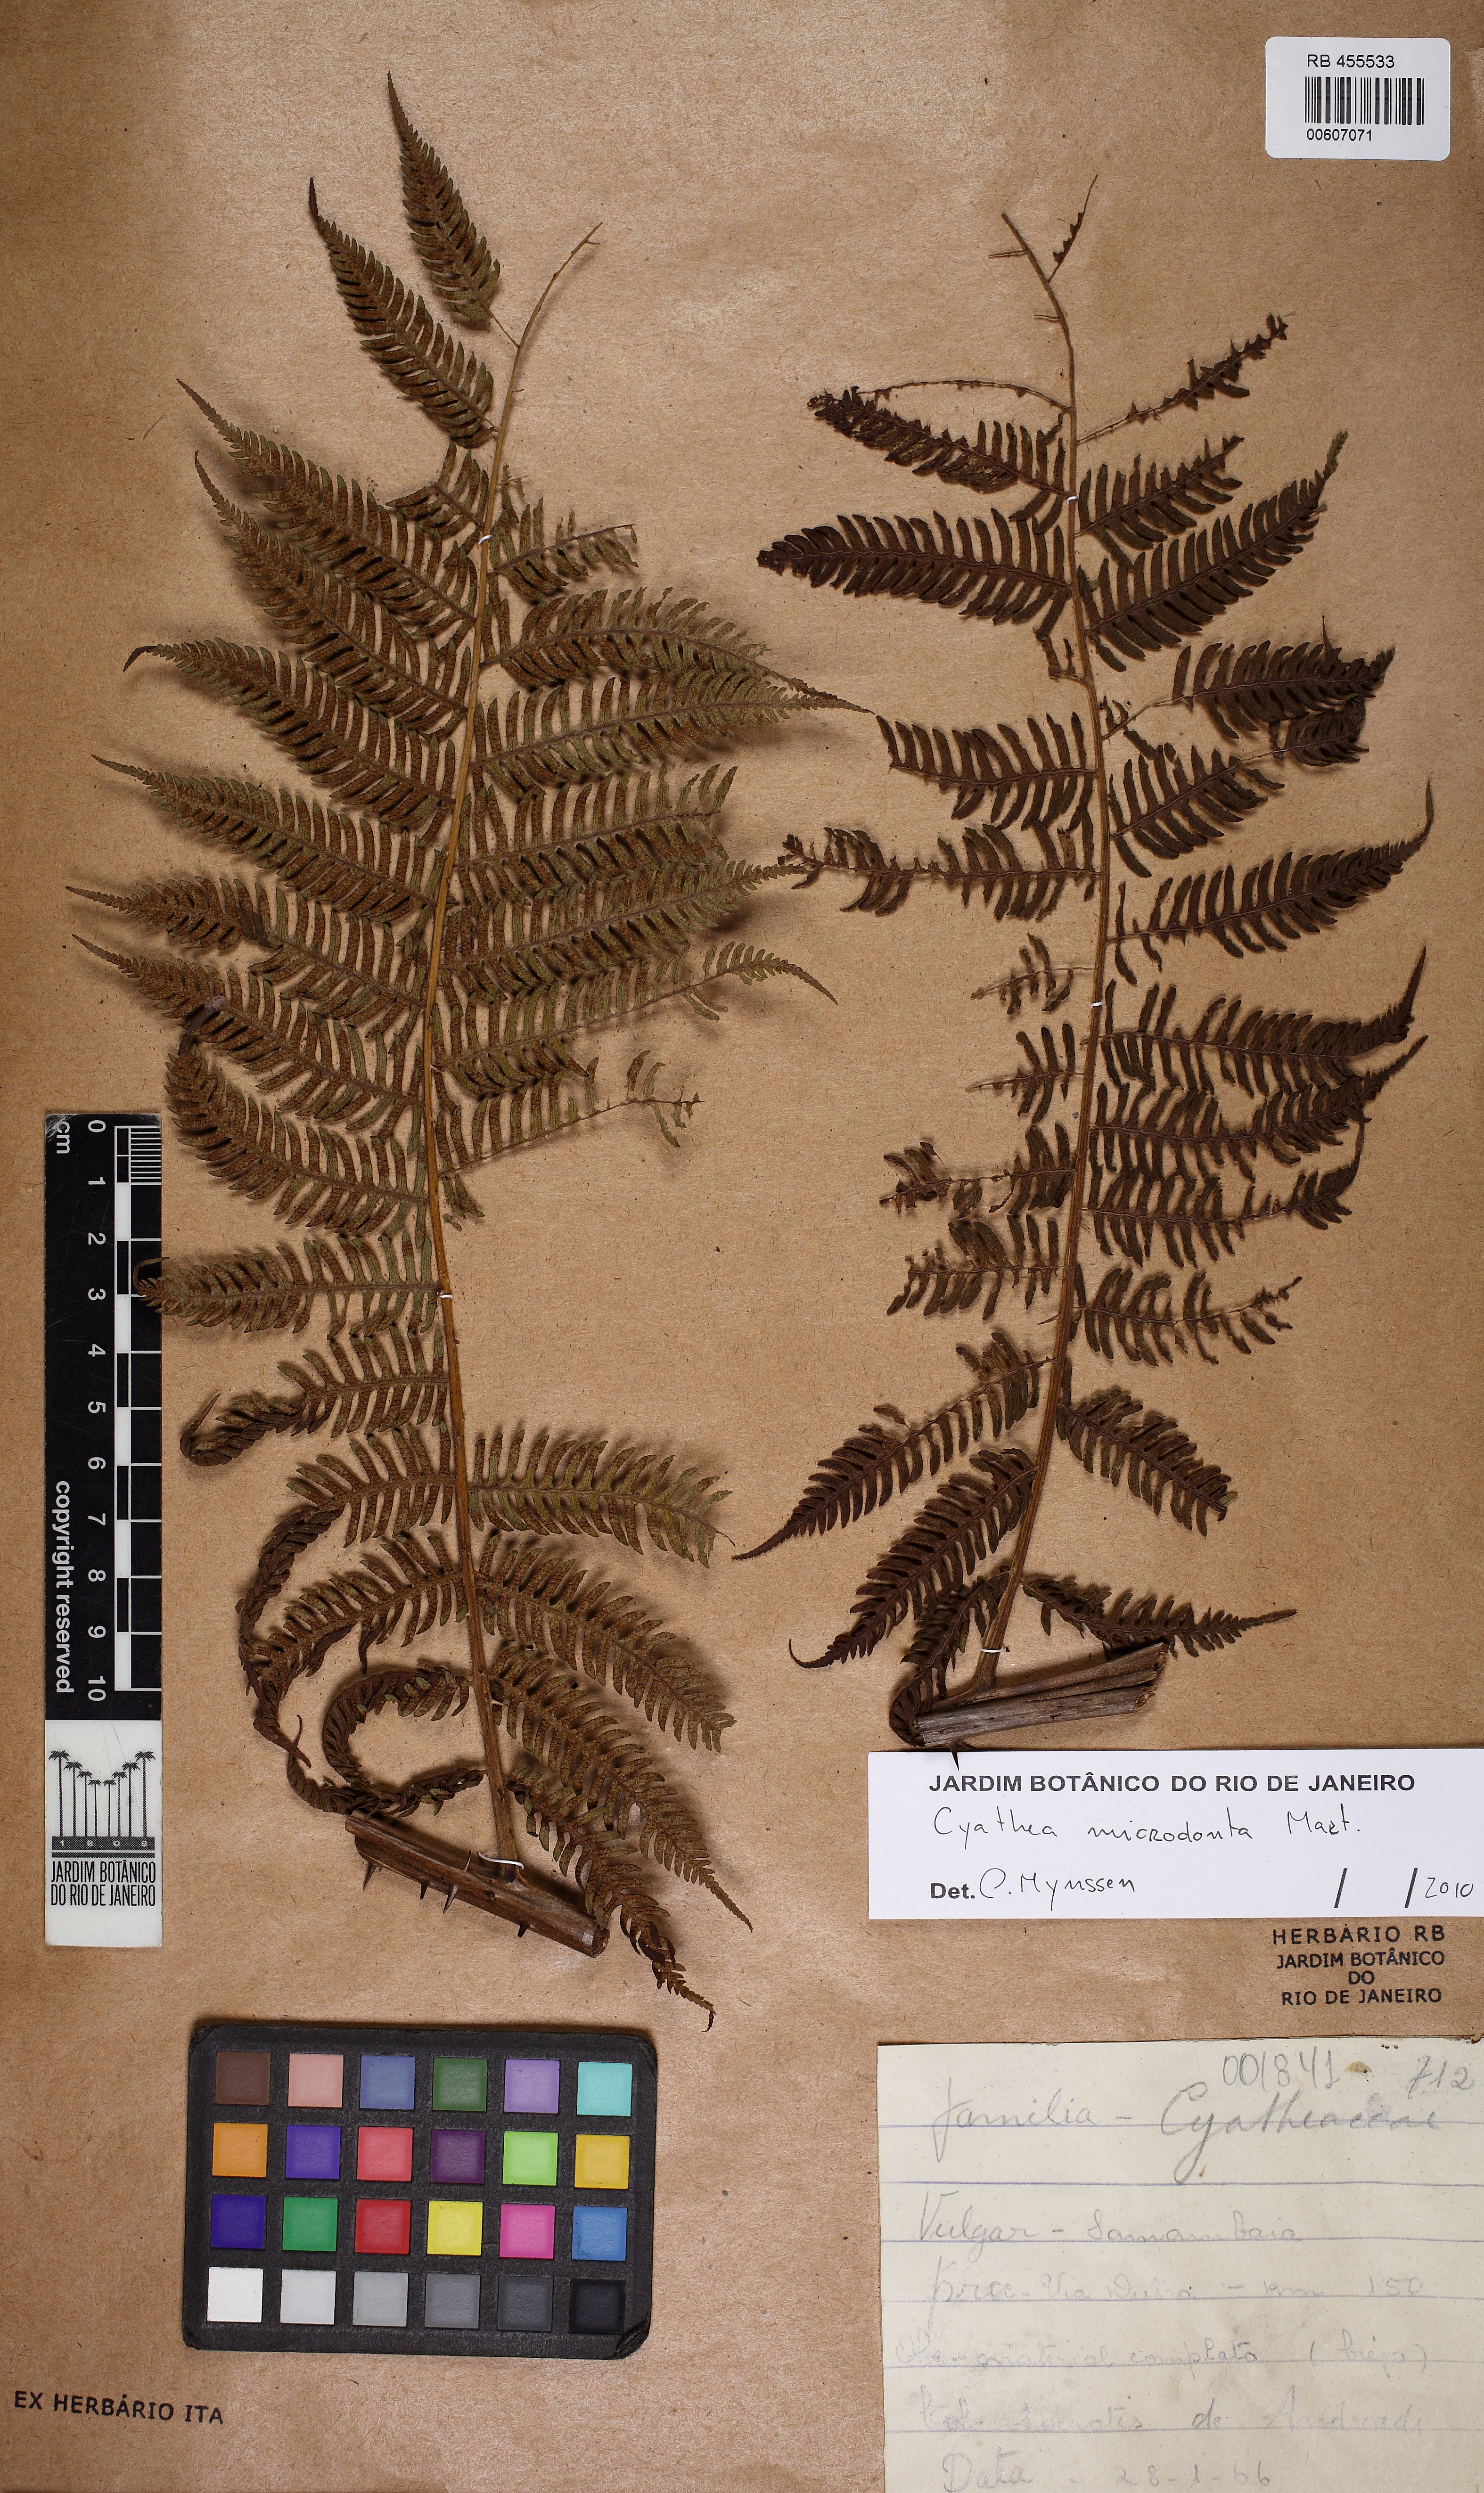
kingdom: Plantae
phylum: Tracheophyta
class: Polypodiopsida
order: Cyatheales
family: Cyatheaceae
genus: Cyathea
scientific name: Cyathea microdonta
